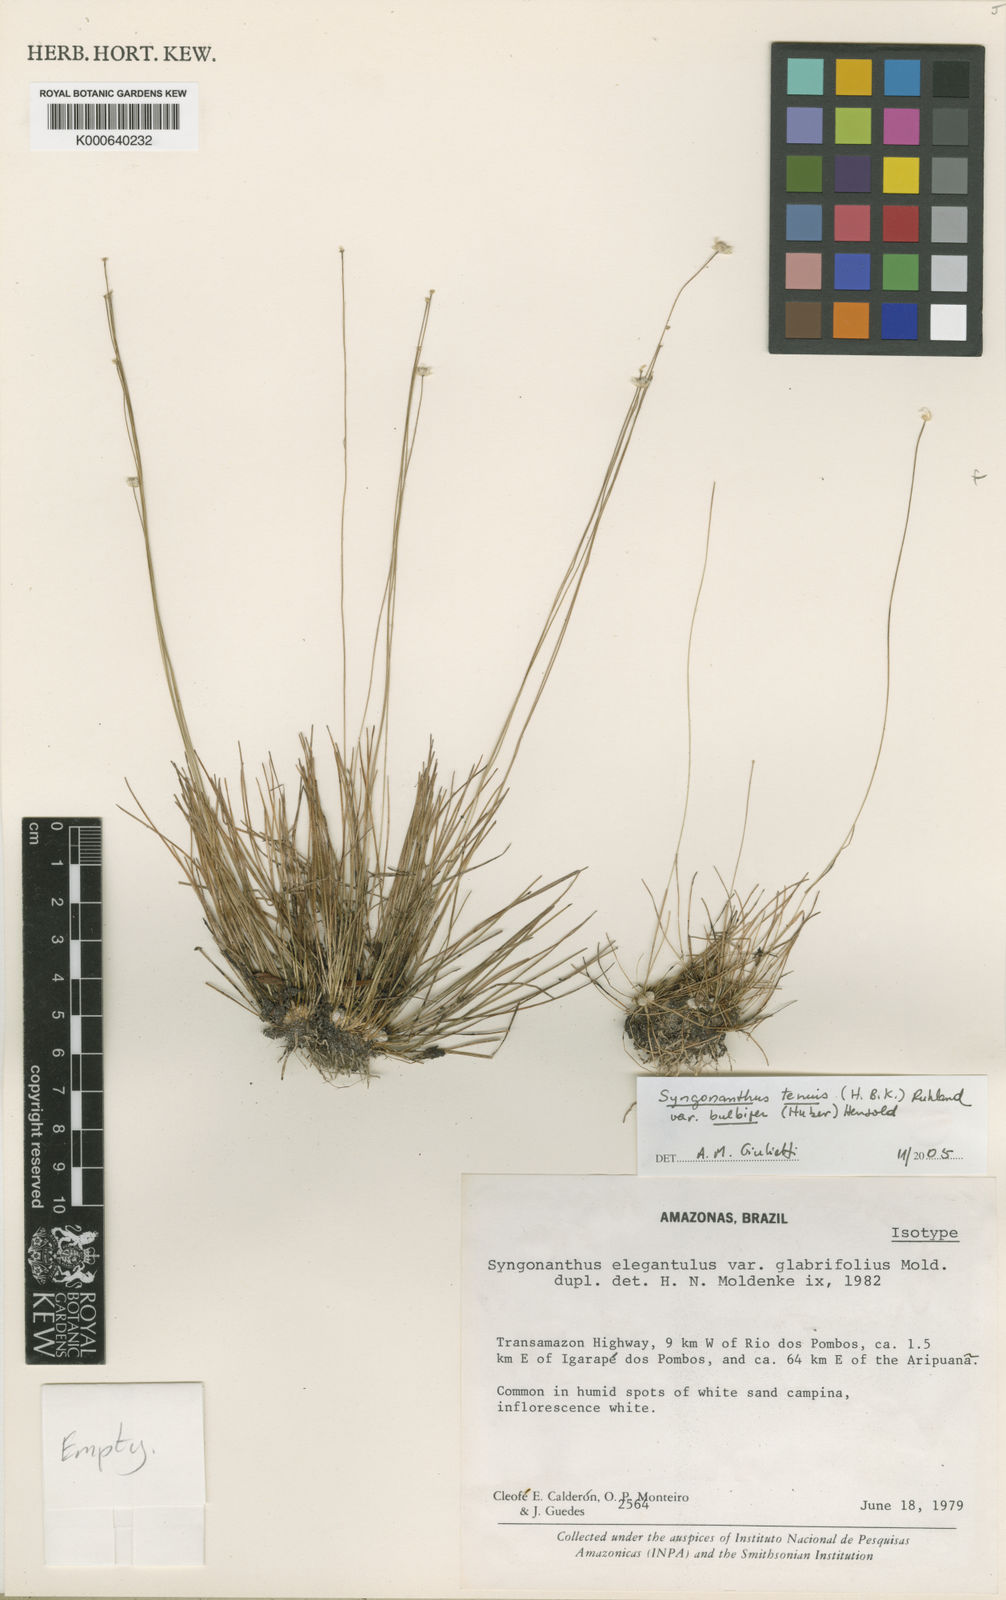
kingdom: Plantae
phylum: Tracheophyta
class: Liliopsida
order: Poales
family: Eriocaulaceae
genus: Syngonanthus
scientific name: Syngonanthus tenuis
